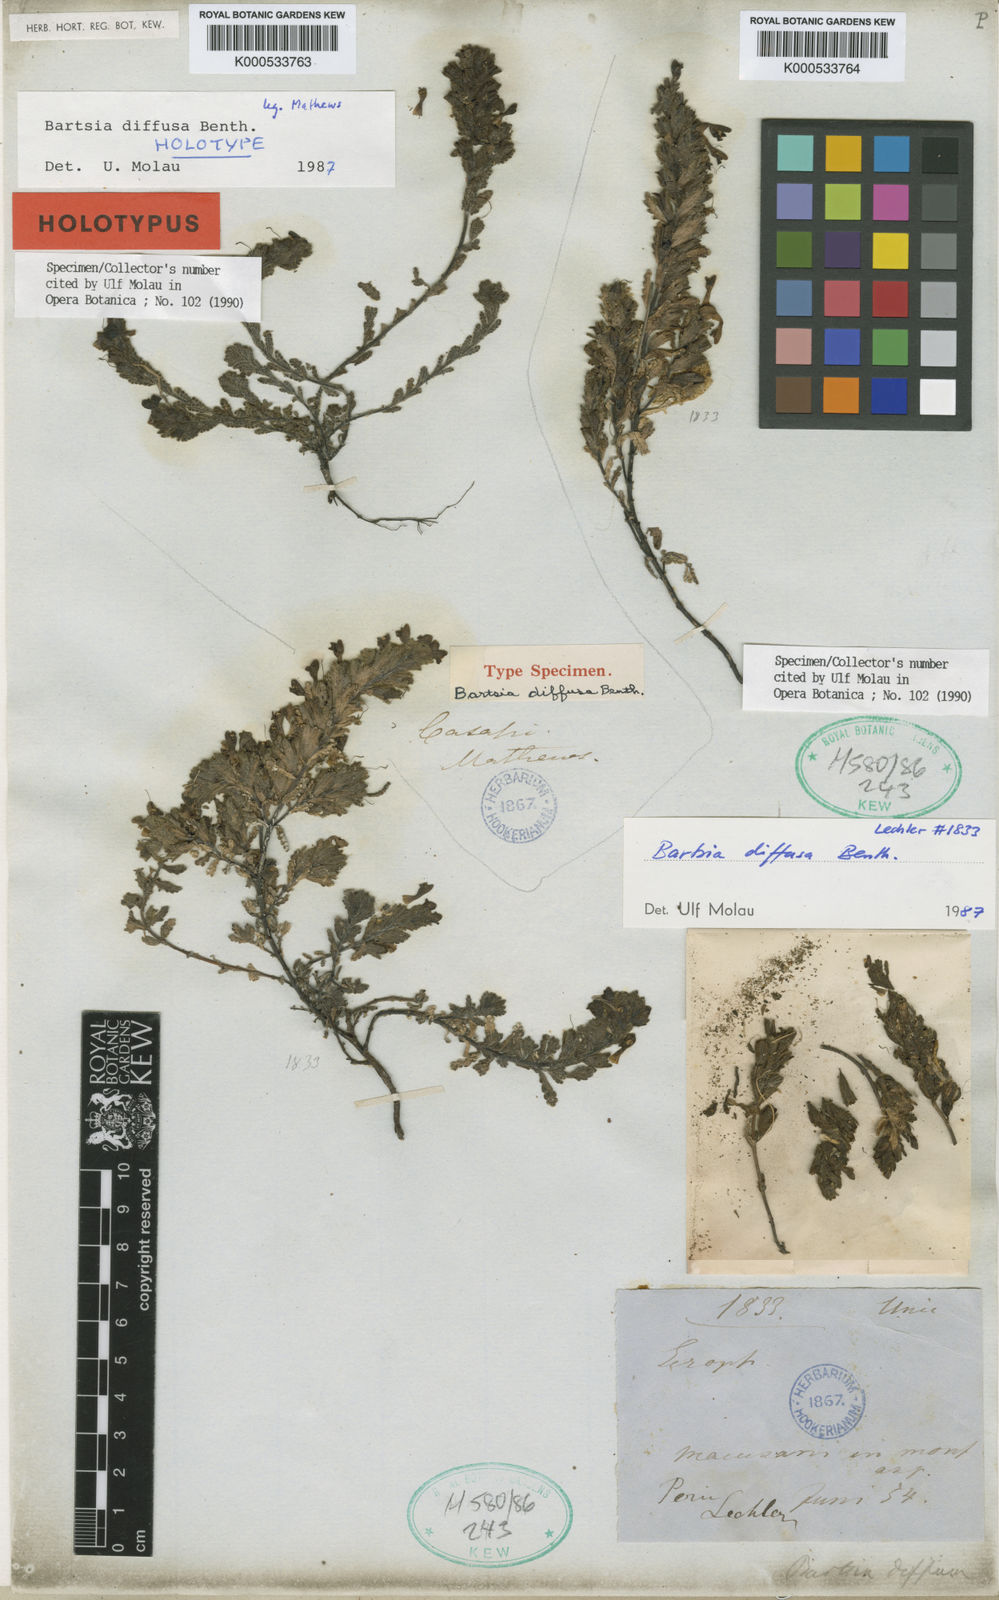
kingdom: Plantae
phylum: Tracheophyta
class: Magnoliopsida
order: Lamiales
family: Orobanchaceae
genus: Neobartsia
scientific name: Neobartsia diffusa
